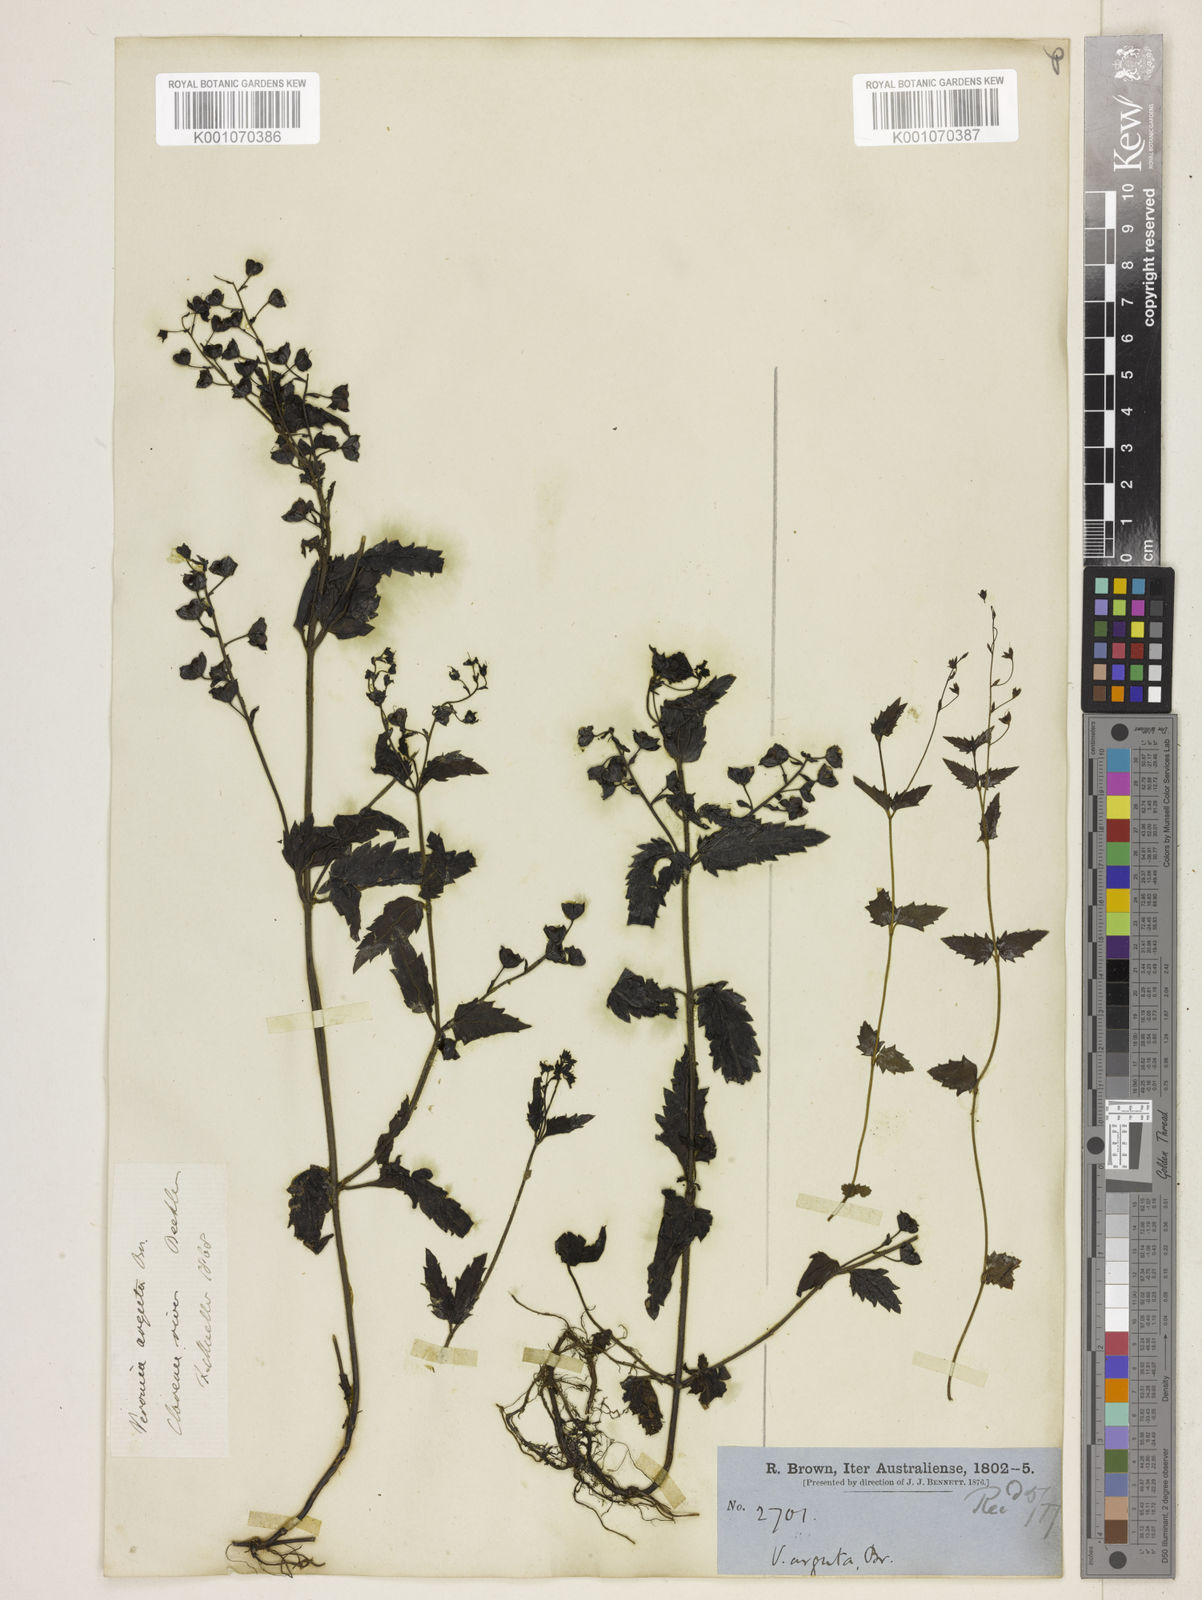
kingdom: Plantae
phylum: Tracheophyta
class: Magnoliopsida
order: Lamiales
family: Plantaginaceae
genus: Veronica
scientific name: Veronica gracilis
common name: Slender speedwell
